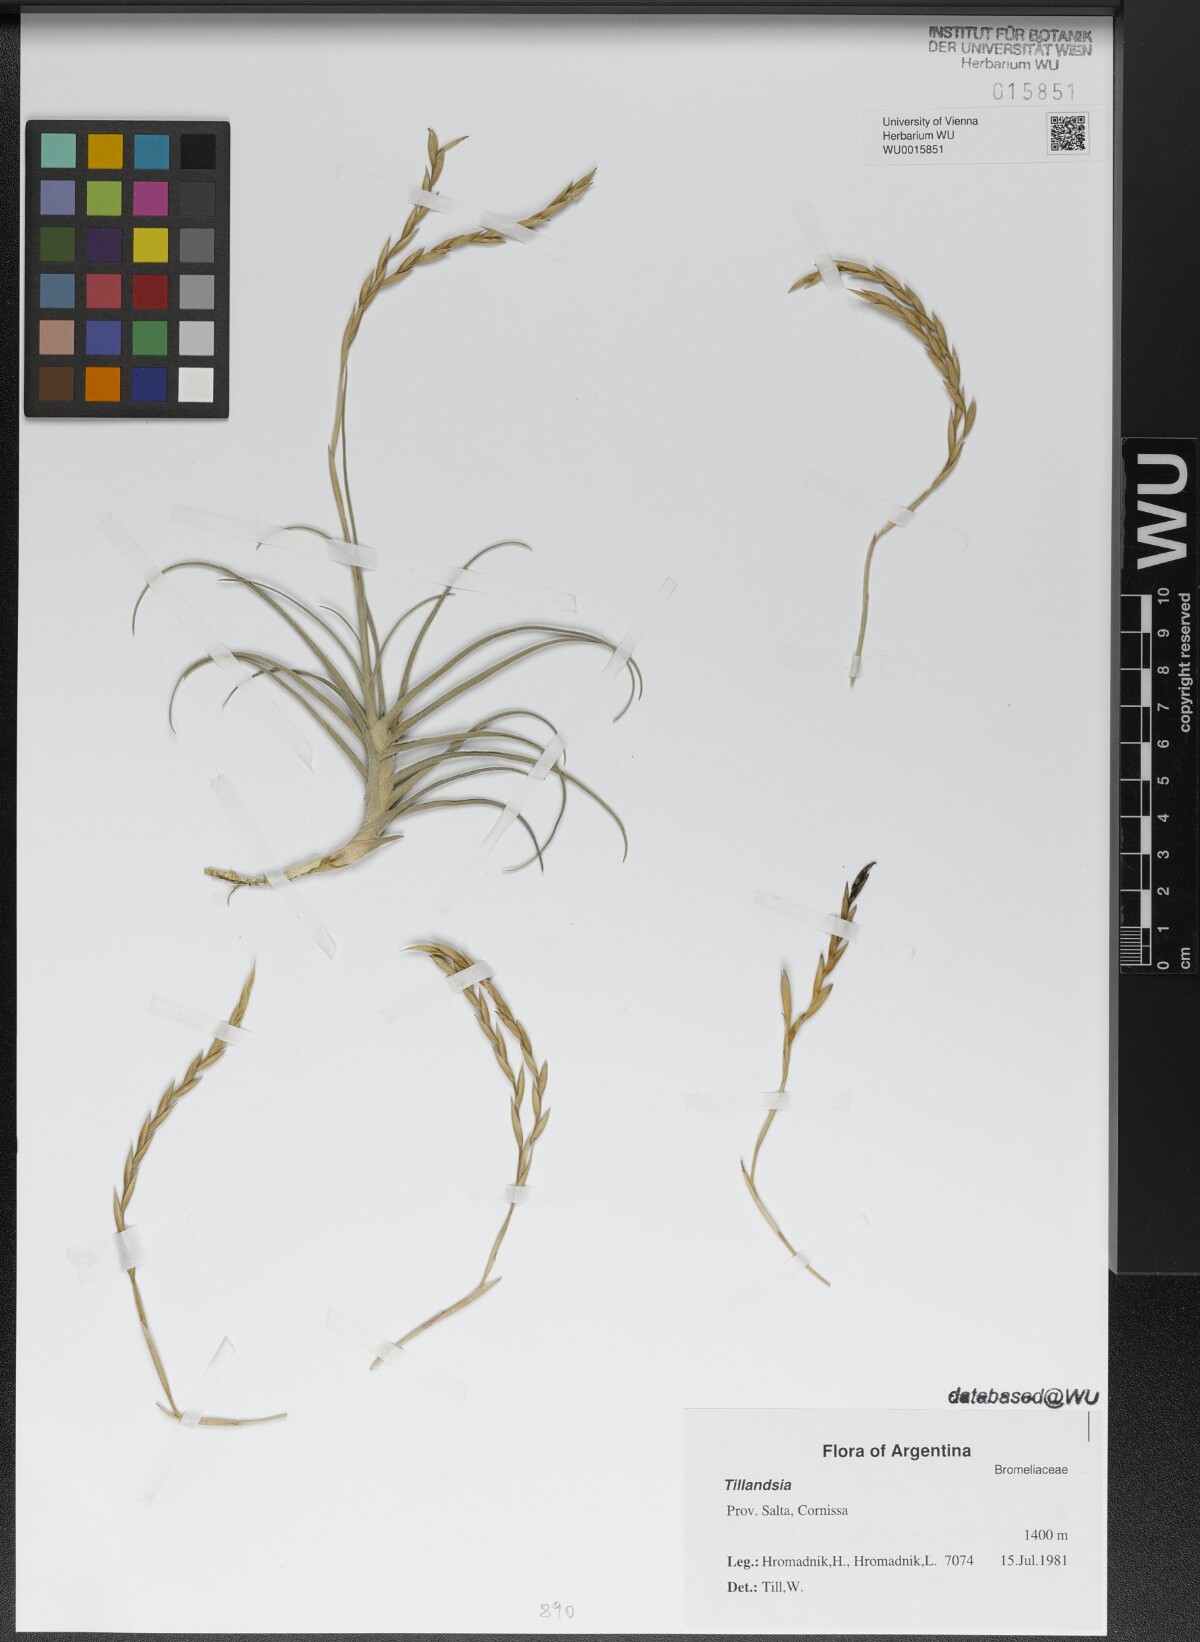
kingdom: Plantae
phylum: Tracheophyta
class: Liliopsida
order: Poales
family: Bromeliaceae
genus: Tillandsia
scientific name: Tillandsia
